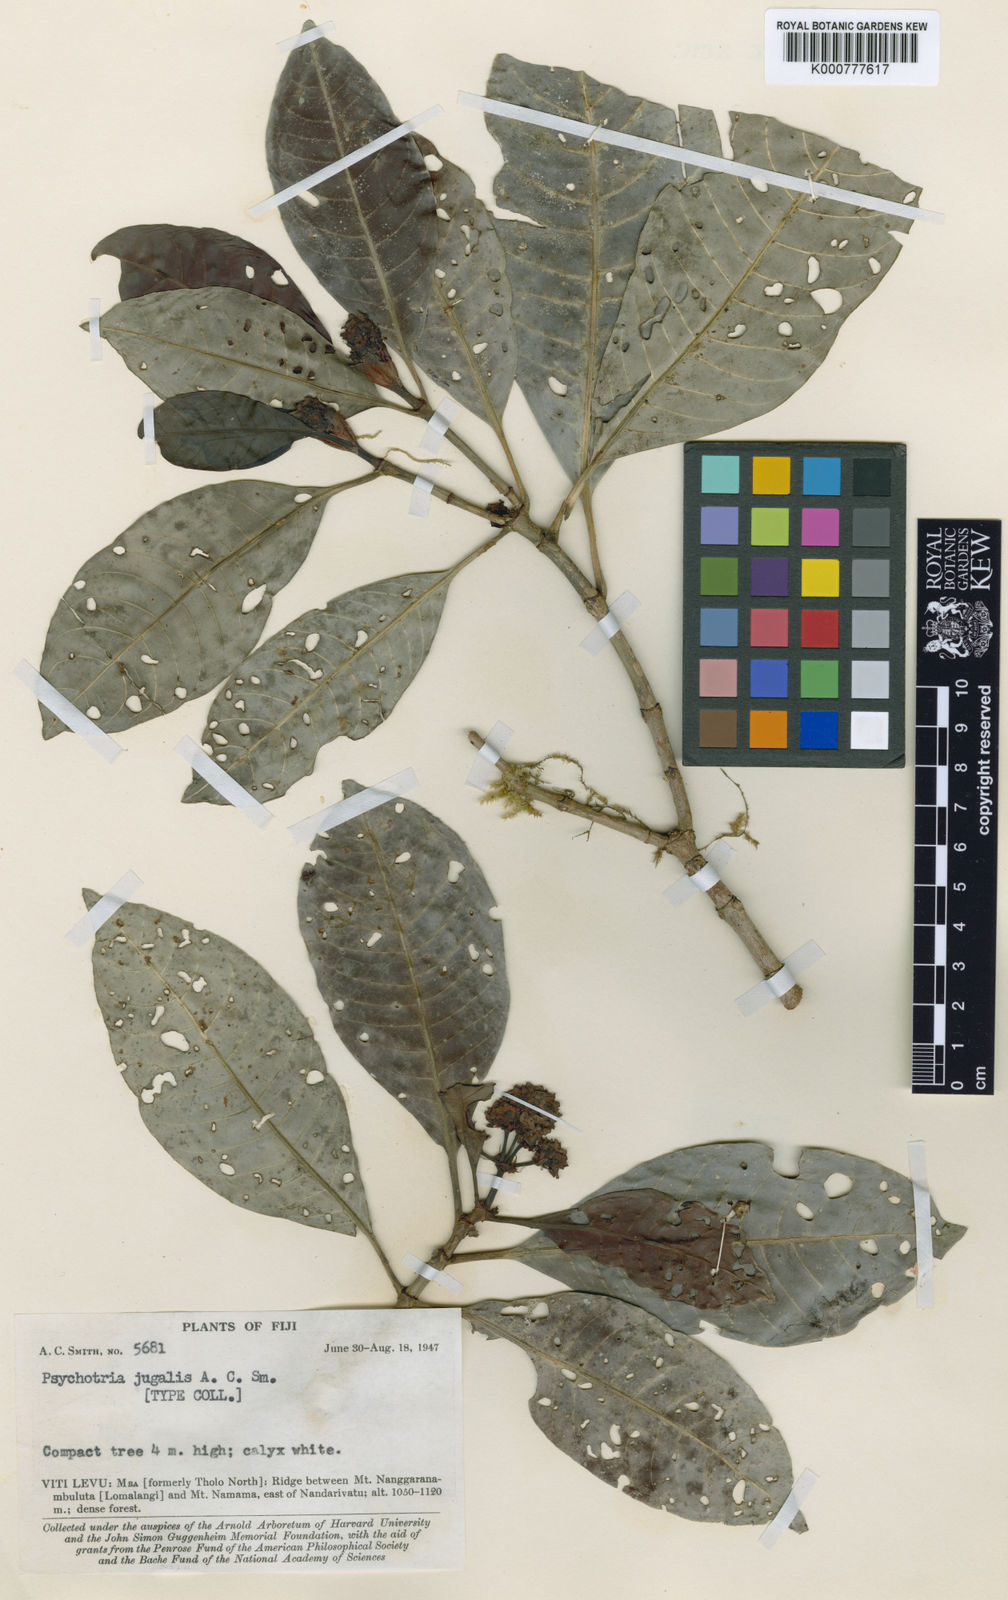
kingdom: Plantae
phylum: Tracheophyta
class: Magnoliopsida
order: Gentianales
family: Rubiaceae
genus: Psychotria
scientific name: Psychotria jugalis
